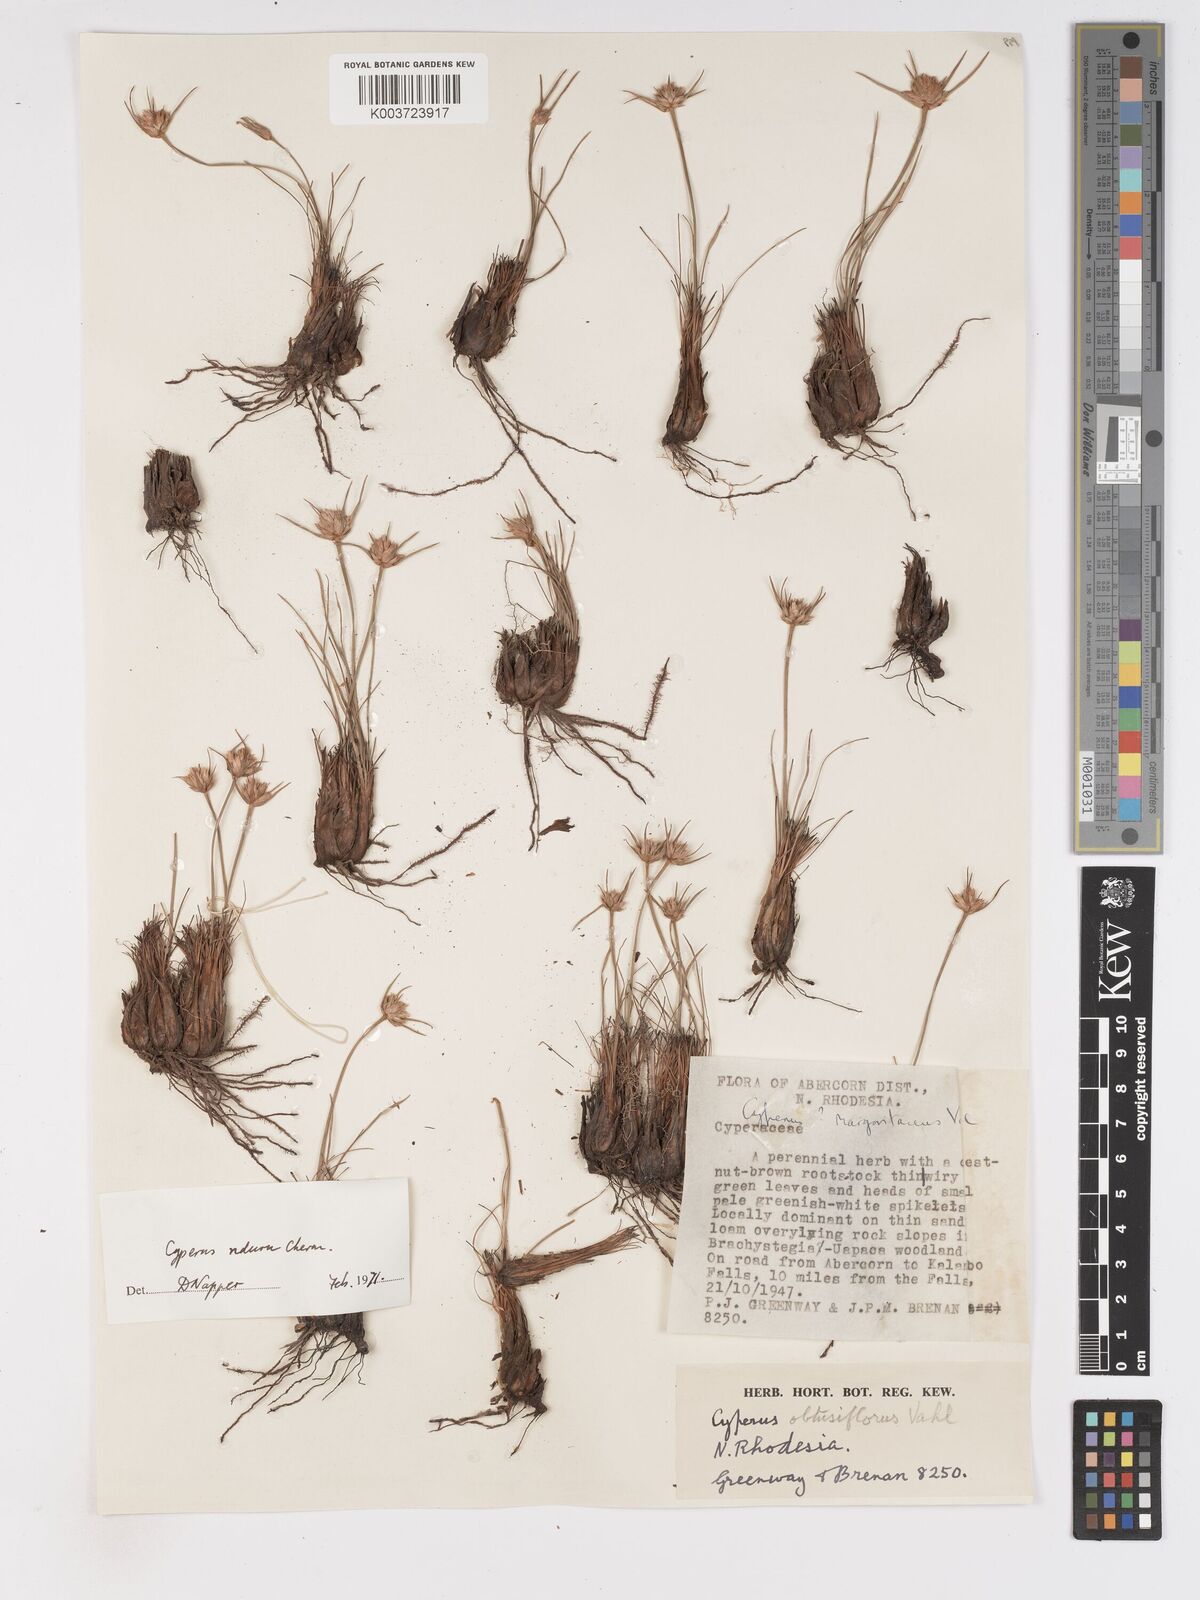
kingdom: Plantae
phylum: Tracheophyta
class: Liliopsida
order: Poales
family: Cyperaceae
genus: Cyperus
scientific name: Cyperus nduru
